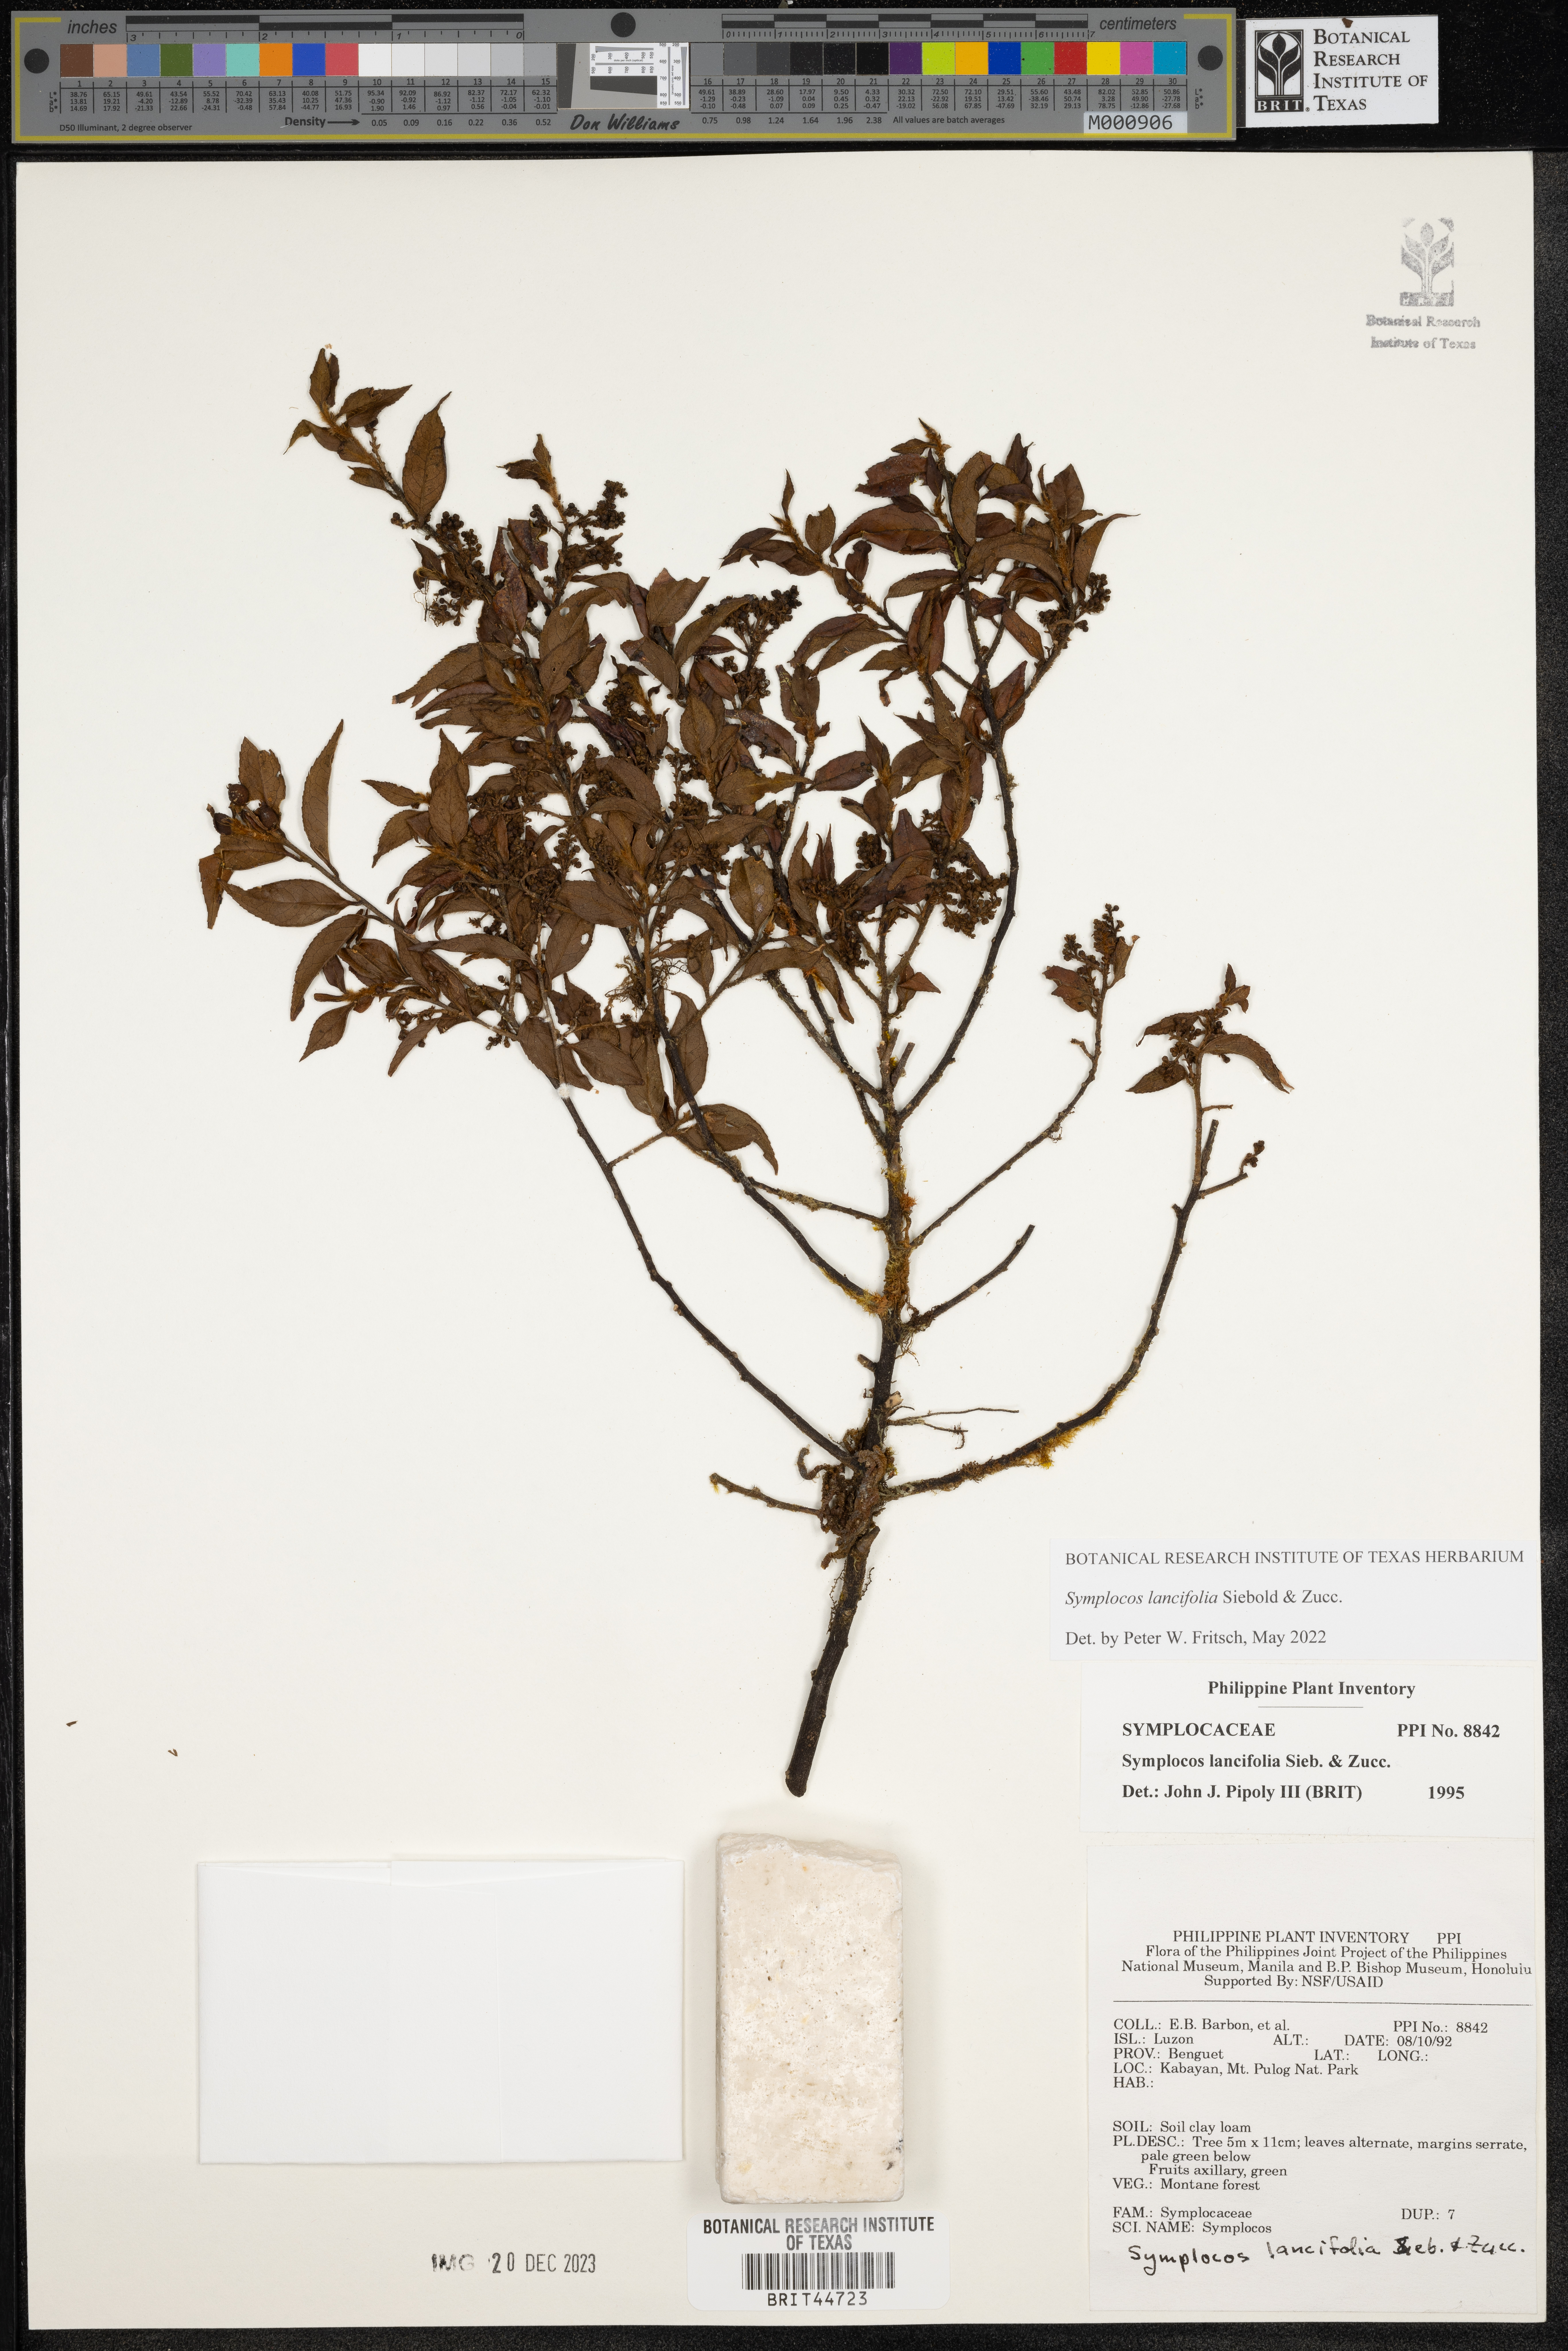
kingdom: Plantae
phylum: Tracheophyta
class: Magnoliopsida
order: Ericales
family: Symplocaceae
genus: Symplocos
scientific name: Symplocos lancifolia
